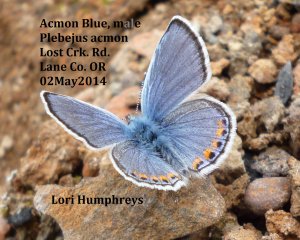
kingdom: Animalia
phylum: Arthropoda
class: Insecta
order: Lepidoptera
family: Lycaenidae
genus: Plebejus
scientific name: Plebejus acmon
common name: Acmon Blue
